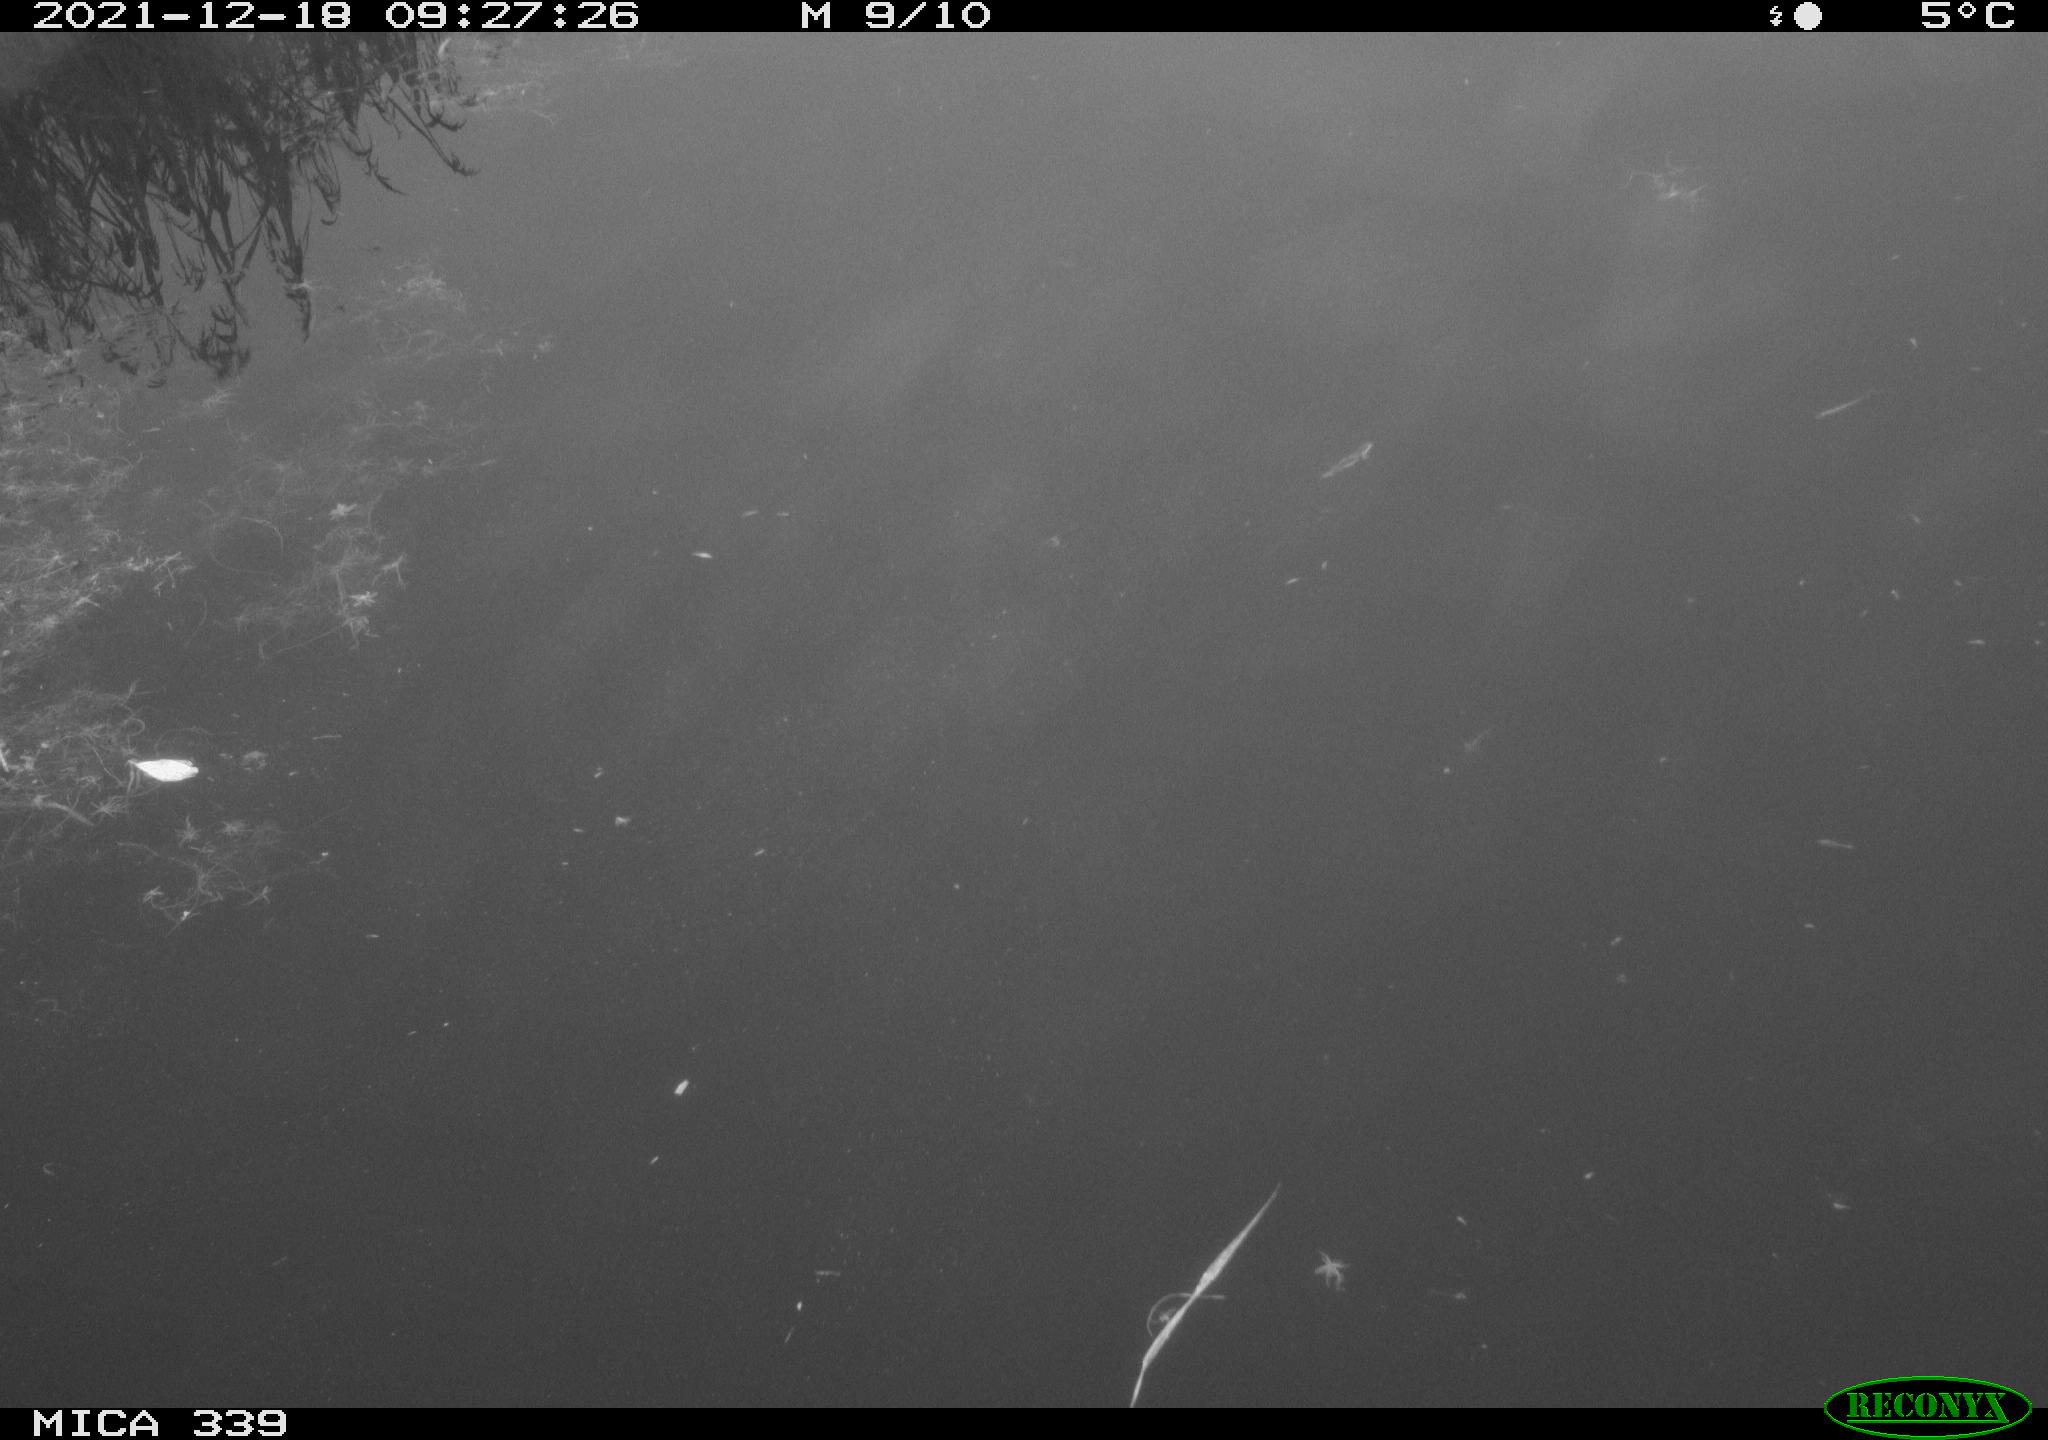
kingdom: Animalia
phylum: Chordata
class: Aves
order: Gruiformes
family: Rallidae
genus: Gallinula
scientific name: Gallinula chloropus
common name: Common moorhen
